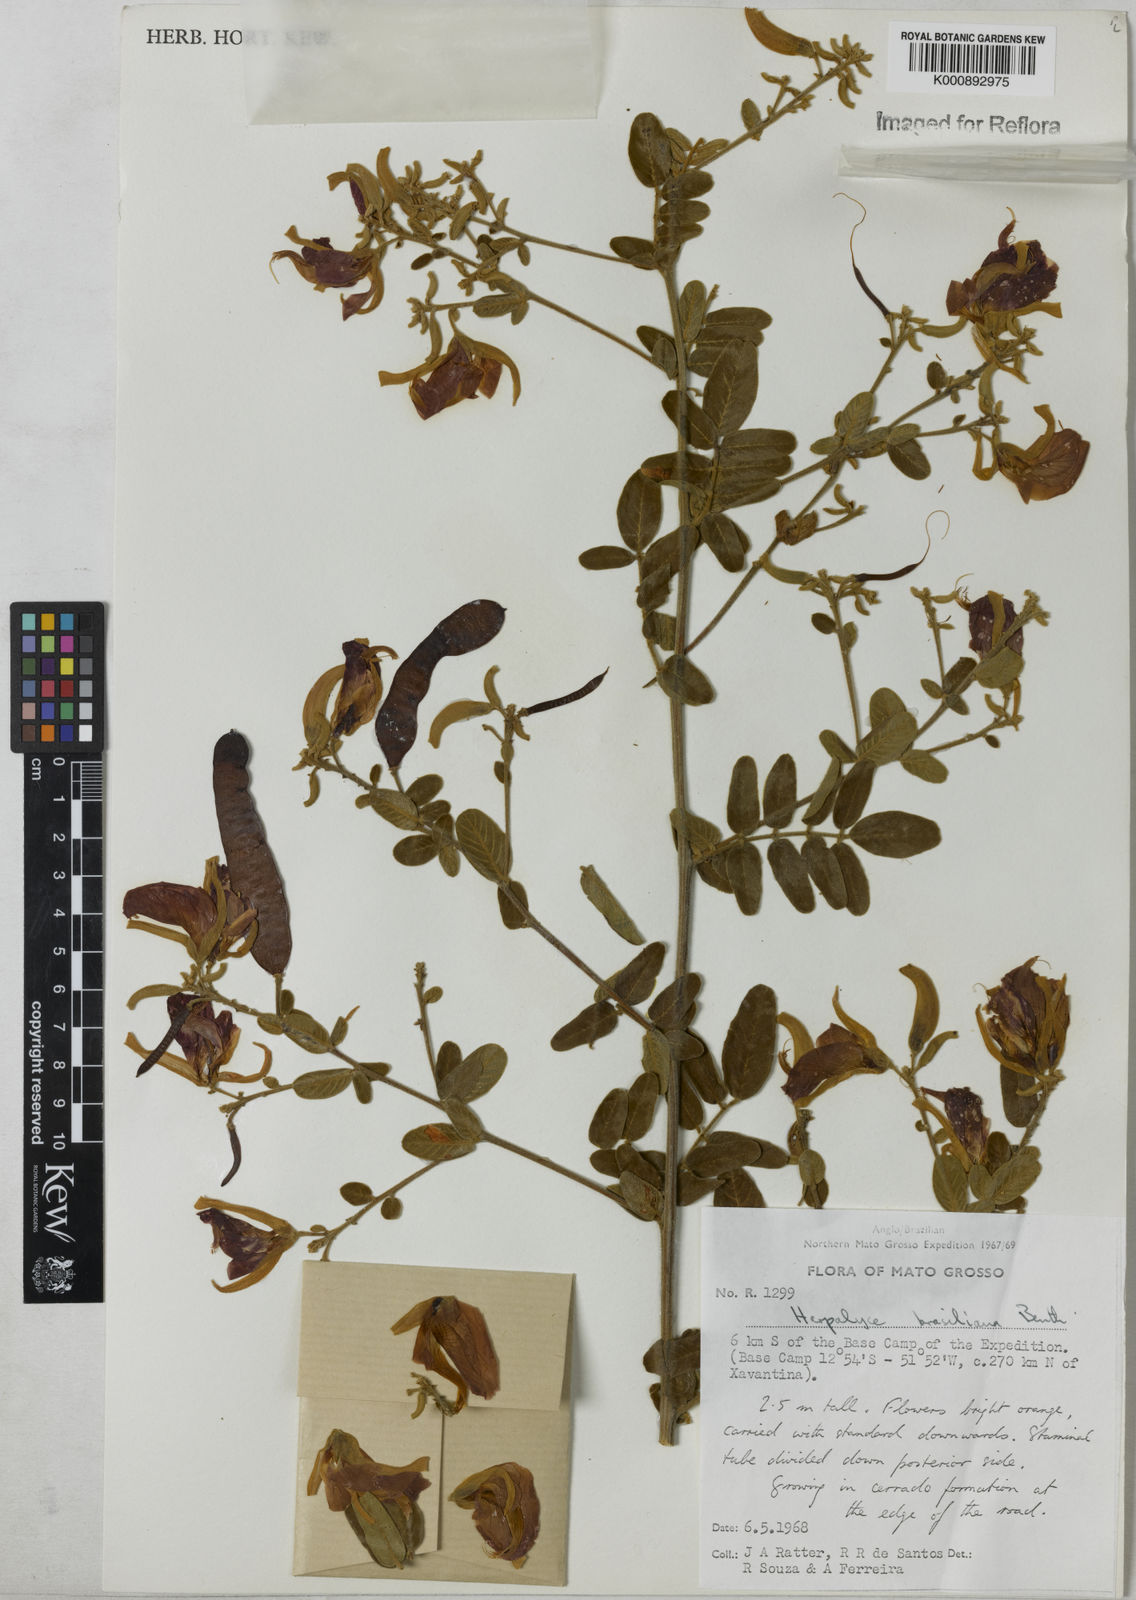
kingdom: Plantae
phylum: Tracheophyta
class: Magnoliopsida
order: Fabales
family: Fabaceae
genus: Harpalyce
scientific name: Harpalyce brasiliana
